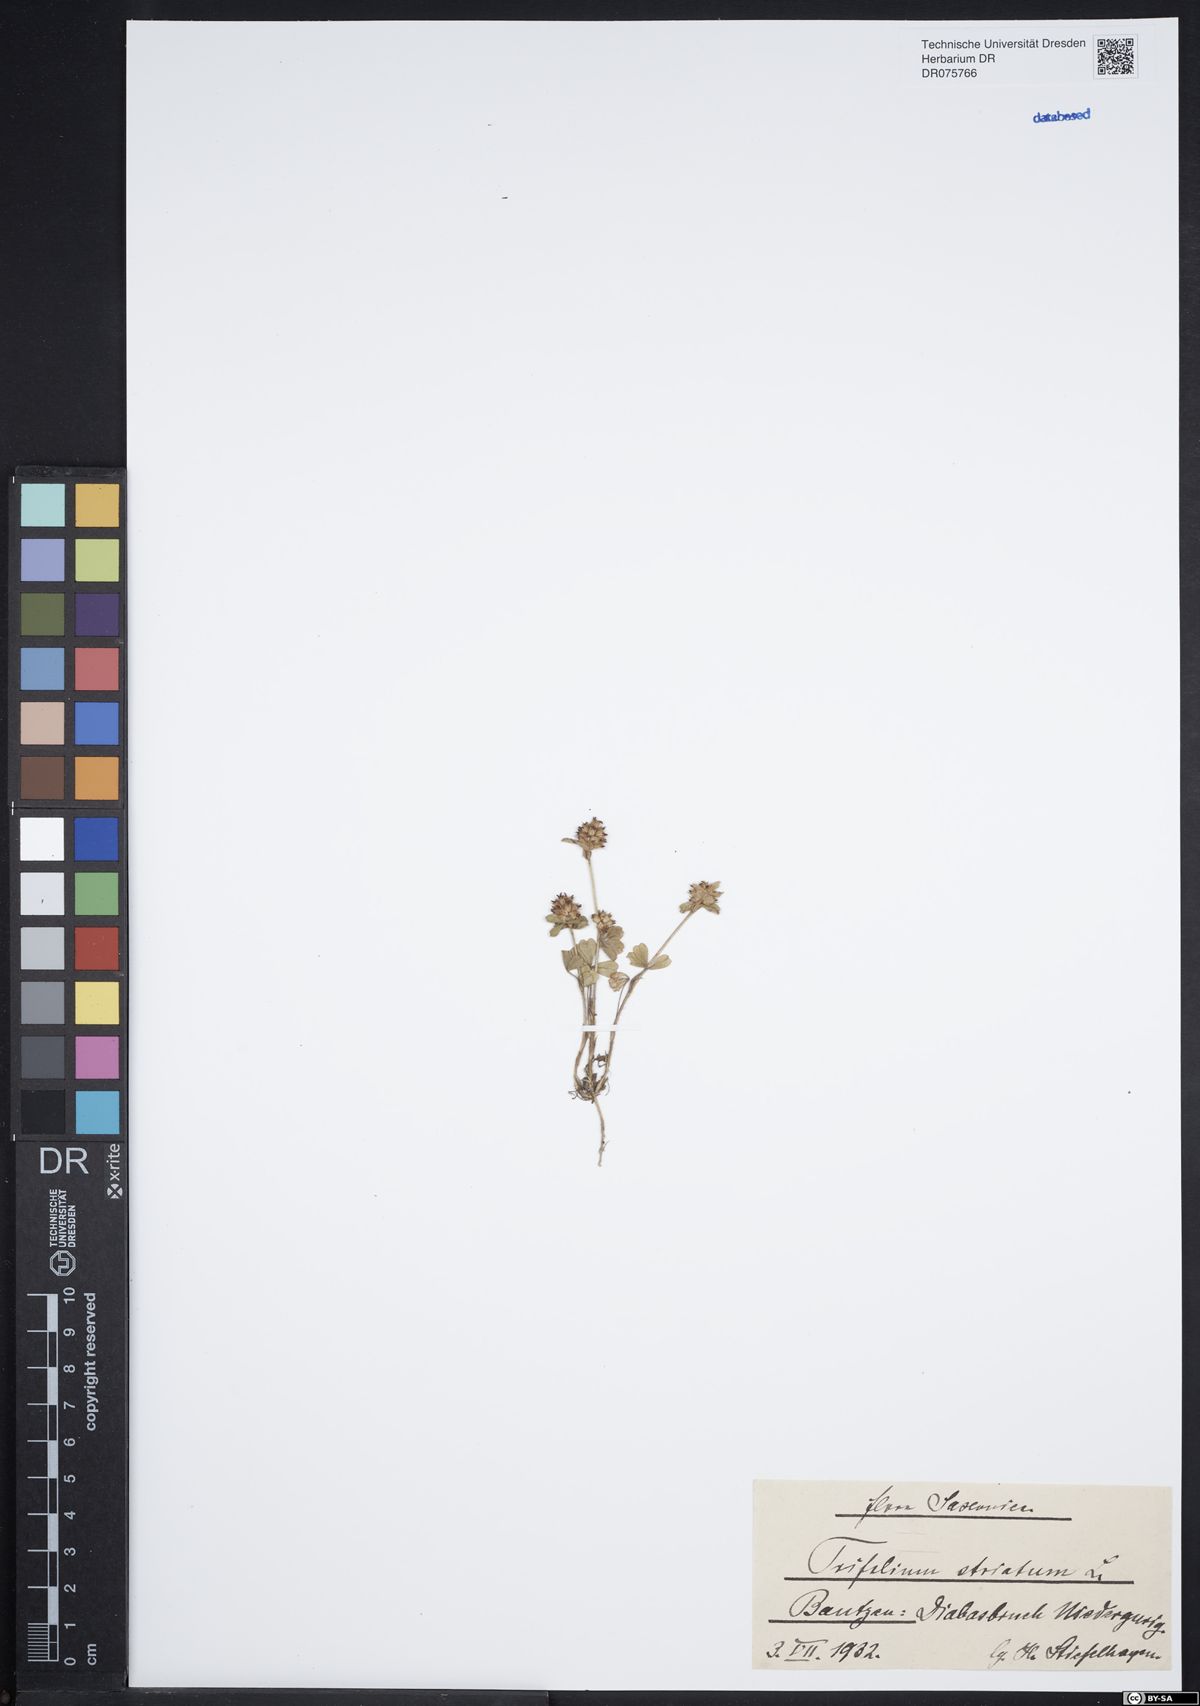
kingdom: Plantae
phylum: Tracheophyta
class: Magnoliopsida
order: Fabales
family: Fabaceae
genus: Trifolium
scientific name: Trifolium striatum
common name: Knotted clover
